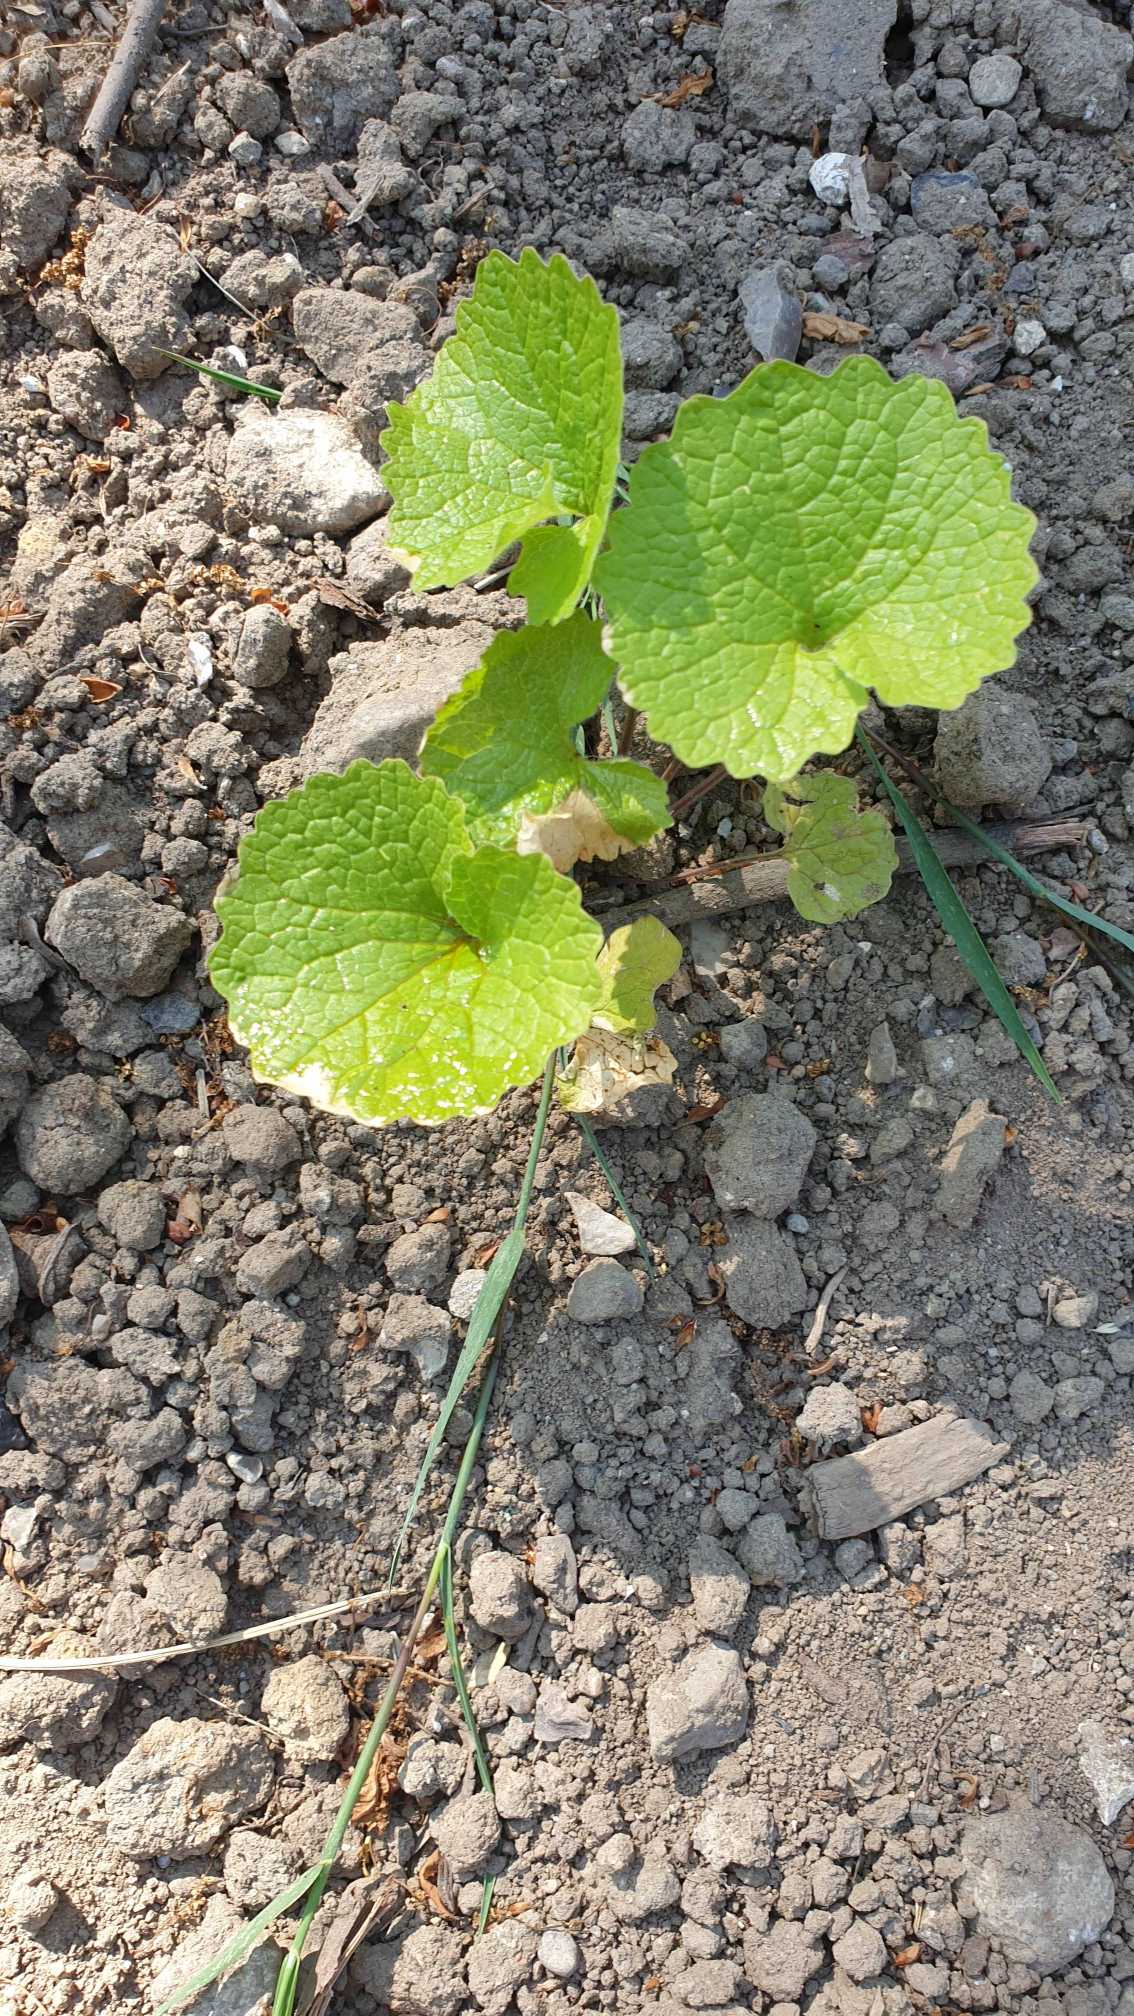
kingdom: Plantae
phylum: Tracheophyta
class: Magnoliopsida
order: Brassicales
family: Brassicaceae
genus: Alliaria
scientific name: Alliaria petiolata
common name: Løgkarse
